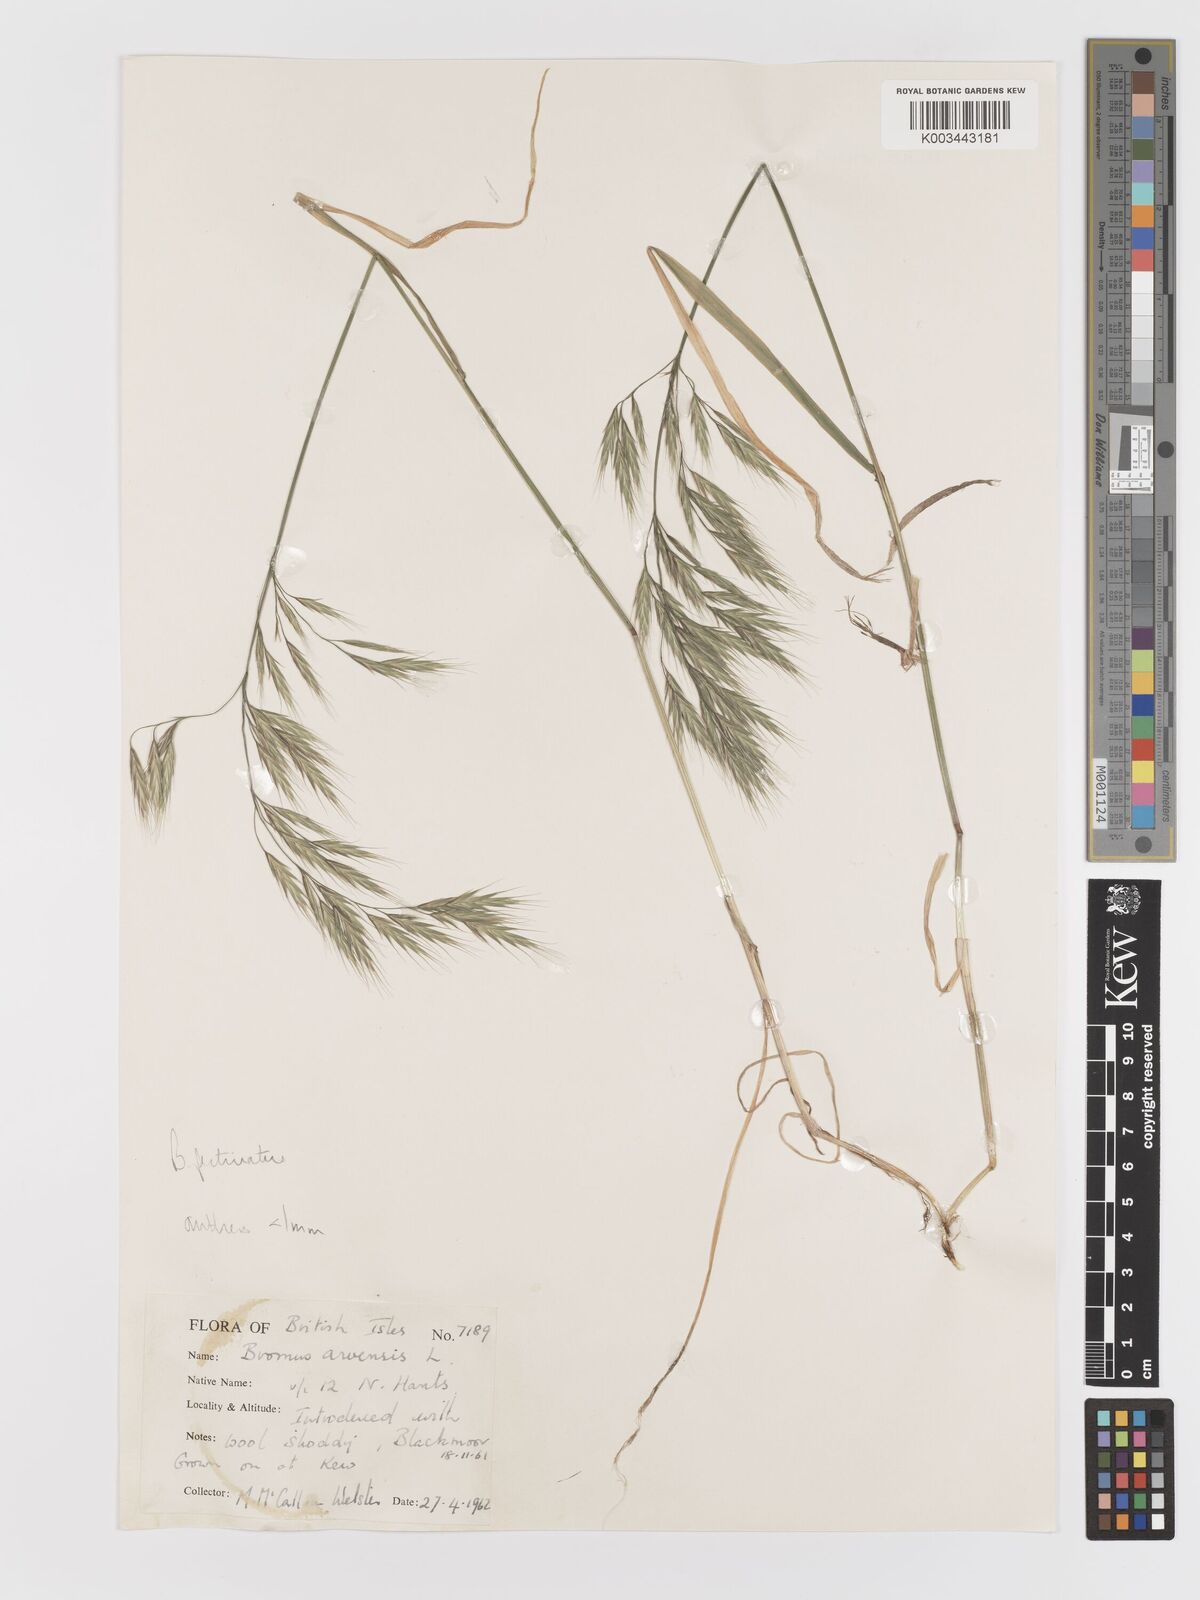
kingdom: Plantae
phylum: Tracheophyta
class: Liliopsida
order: Poales
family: Poaceae
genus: Bromus
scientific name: Bromus pectinatus
